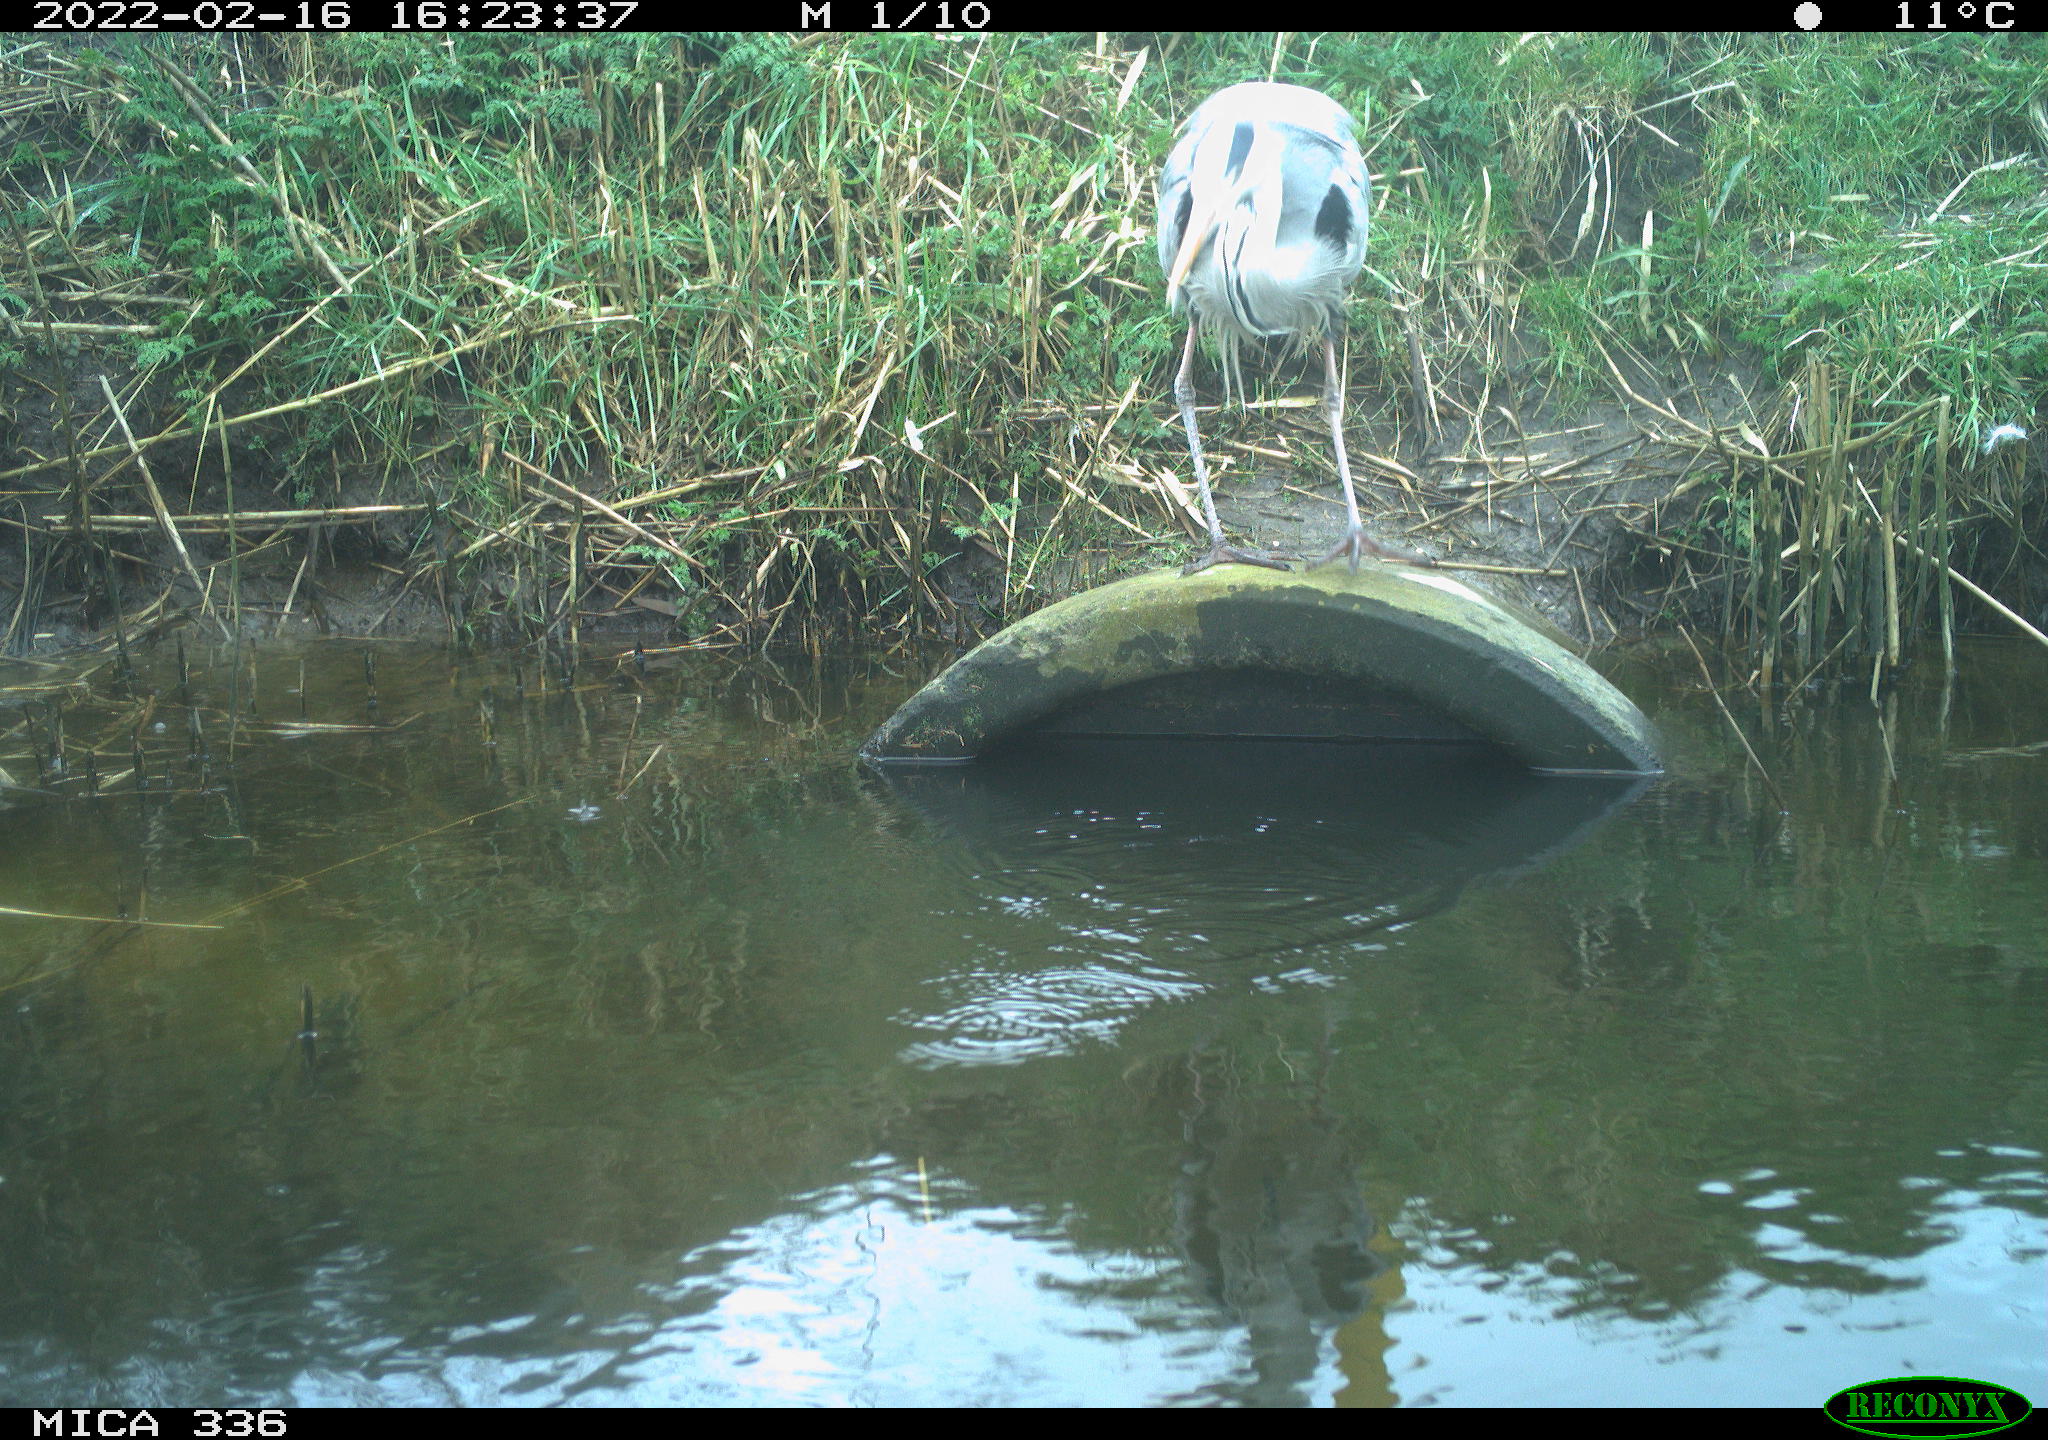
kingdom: Animalia
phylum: Chordata
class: Aves
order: Pelecaniformes
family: Ardeidae
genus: Ardea
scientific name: Ardea cinerea
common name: Grey heron
